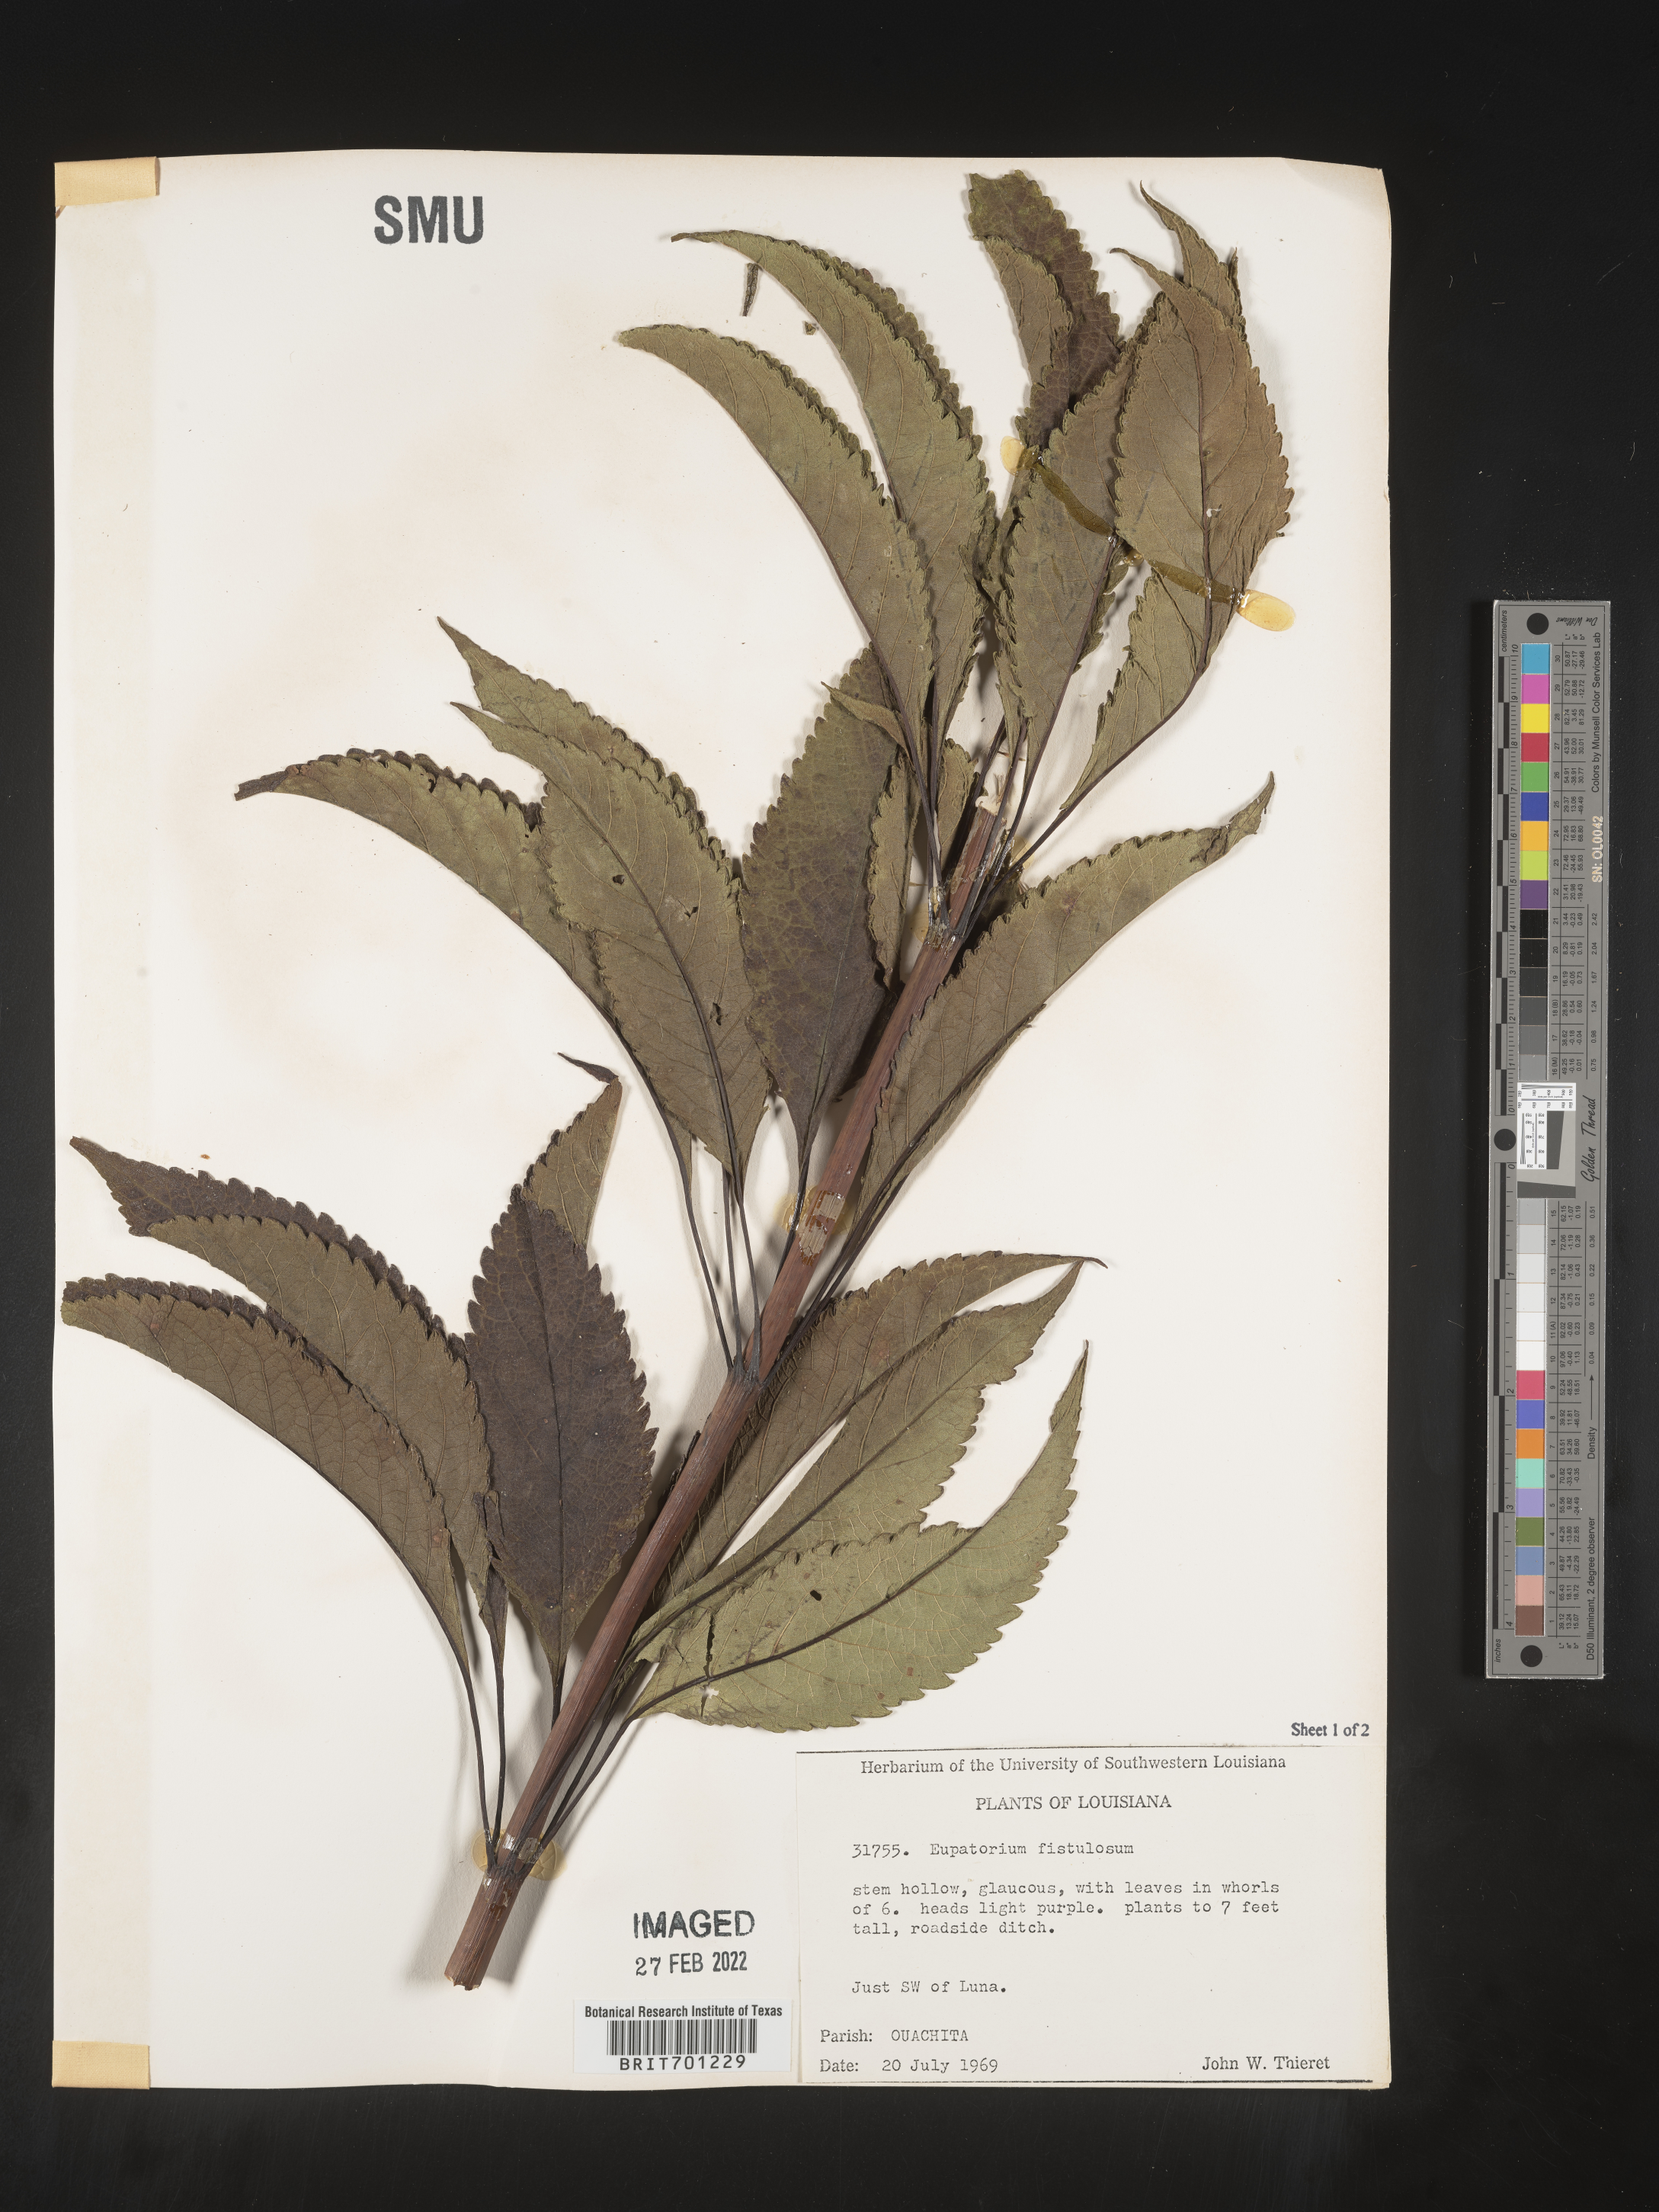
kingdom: Plantae
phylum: Tracheophyta
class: Magnoliopsida
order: Asterales
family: Asteraceae
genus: Eutrochium
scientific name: Eutrochium fistulosum
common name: Trumpetweed
